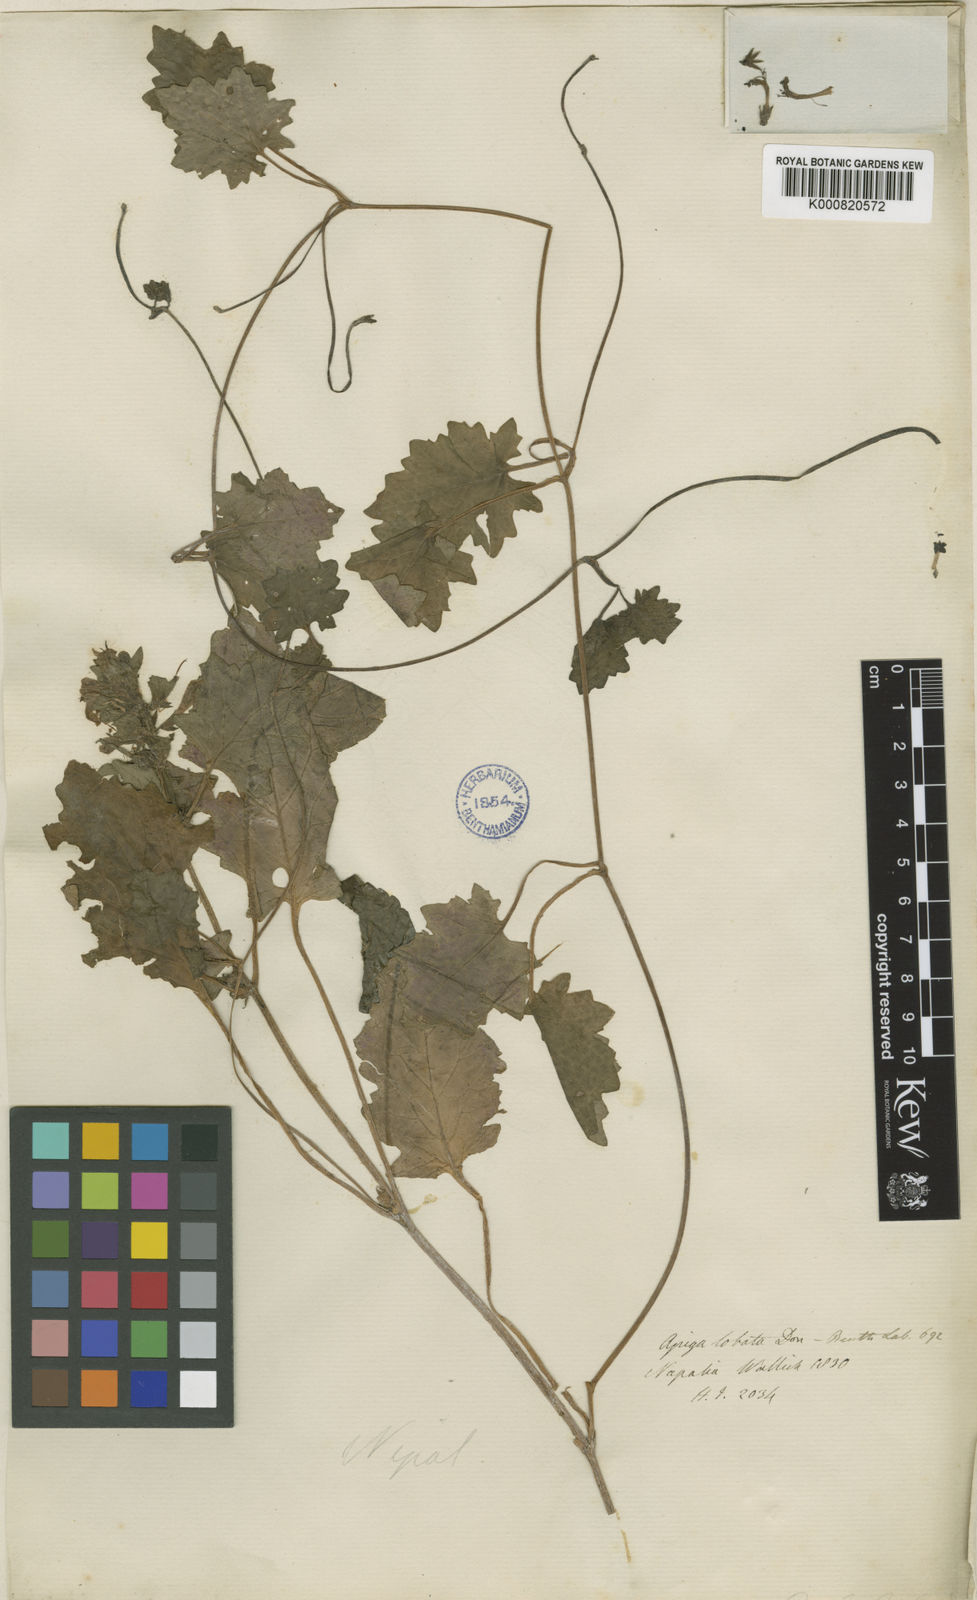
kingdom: Plantae
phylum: Tracheophyta
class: Magnoliopsida
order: Lamiales
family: Lamiaceae
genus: Ajuga
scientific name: Ajuga lobata
